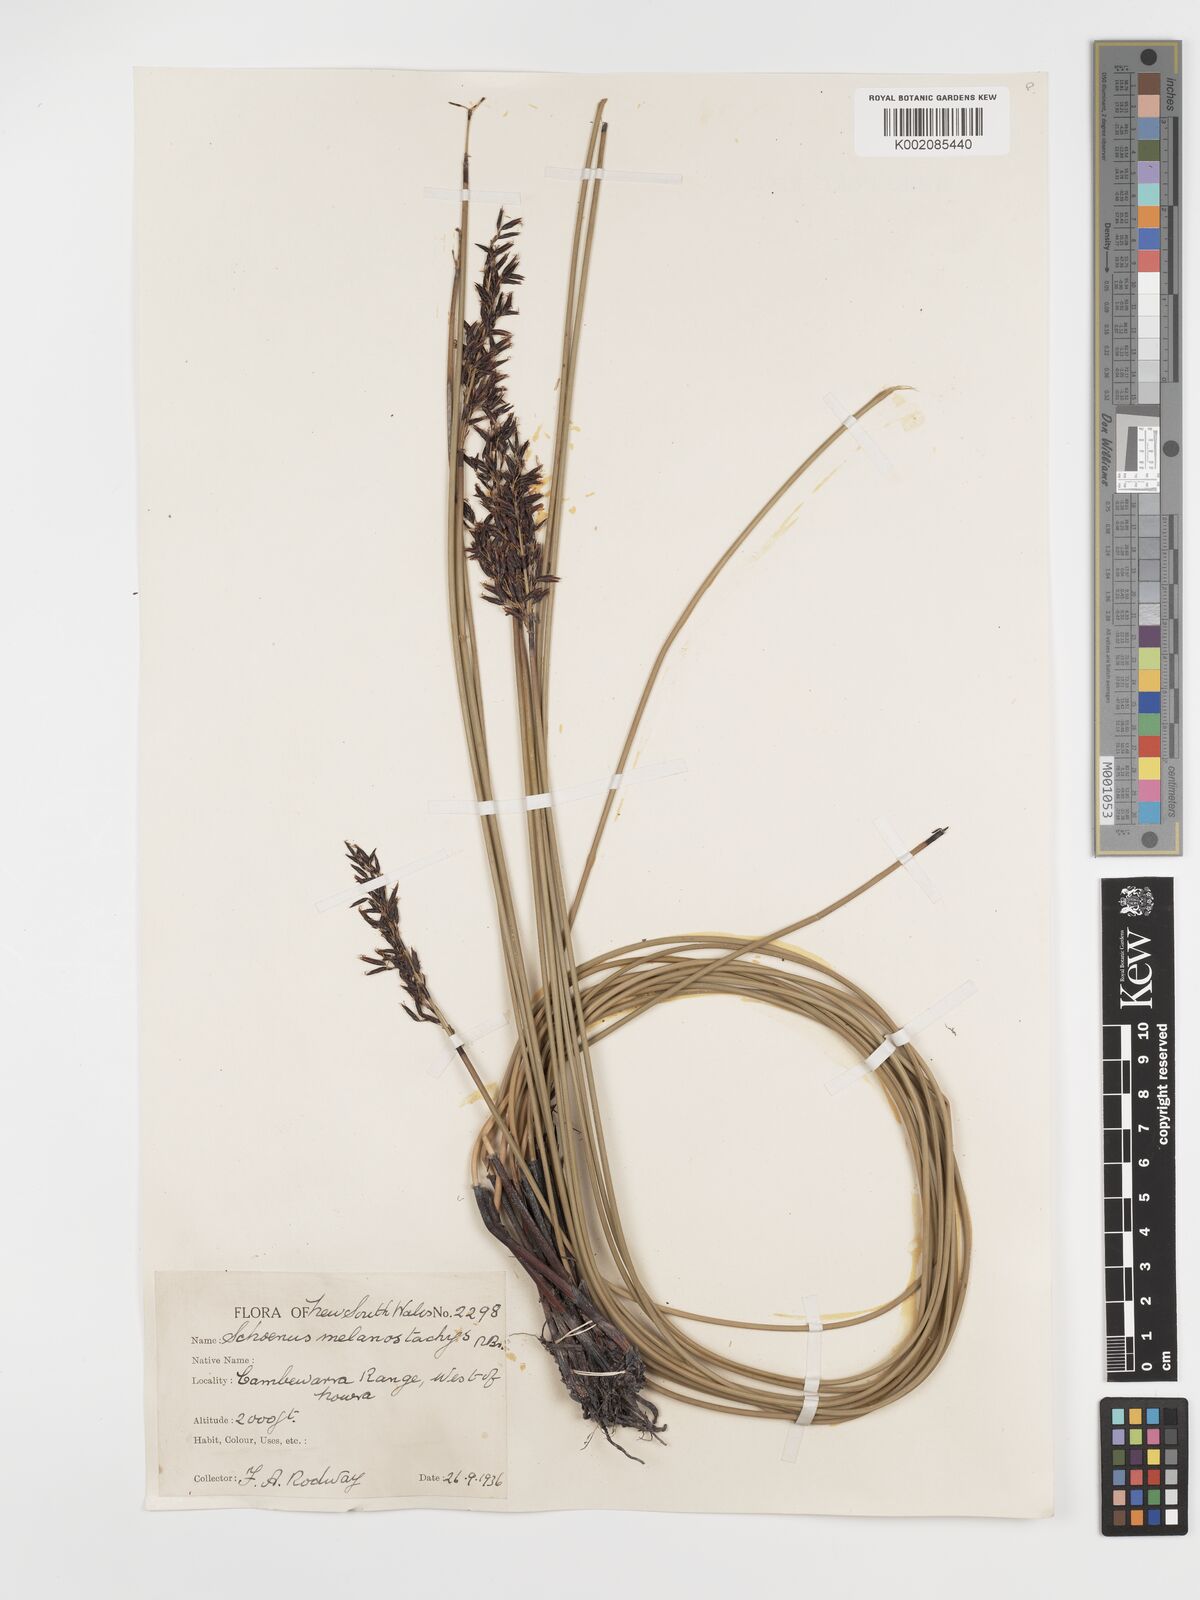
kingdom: Plantae
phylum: Tracheophyta
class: Liliopsida
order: Poales
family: Cyperaceae
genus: Schoenus
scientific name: Schoenus melanostachys
